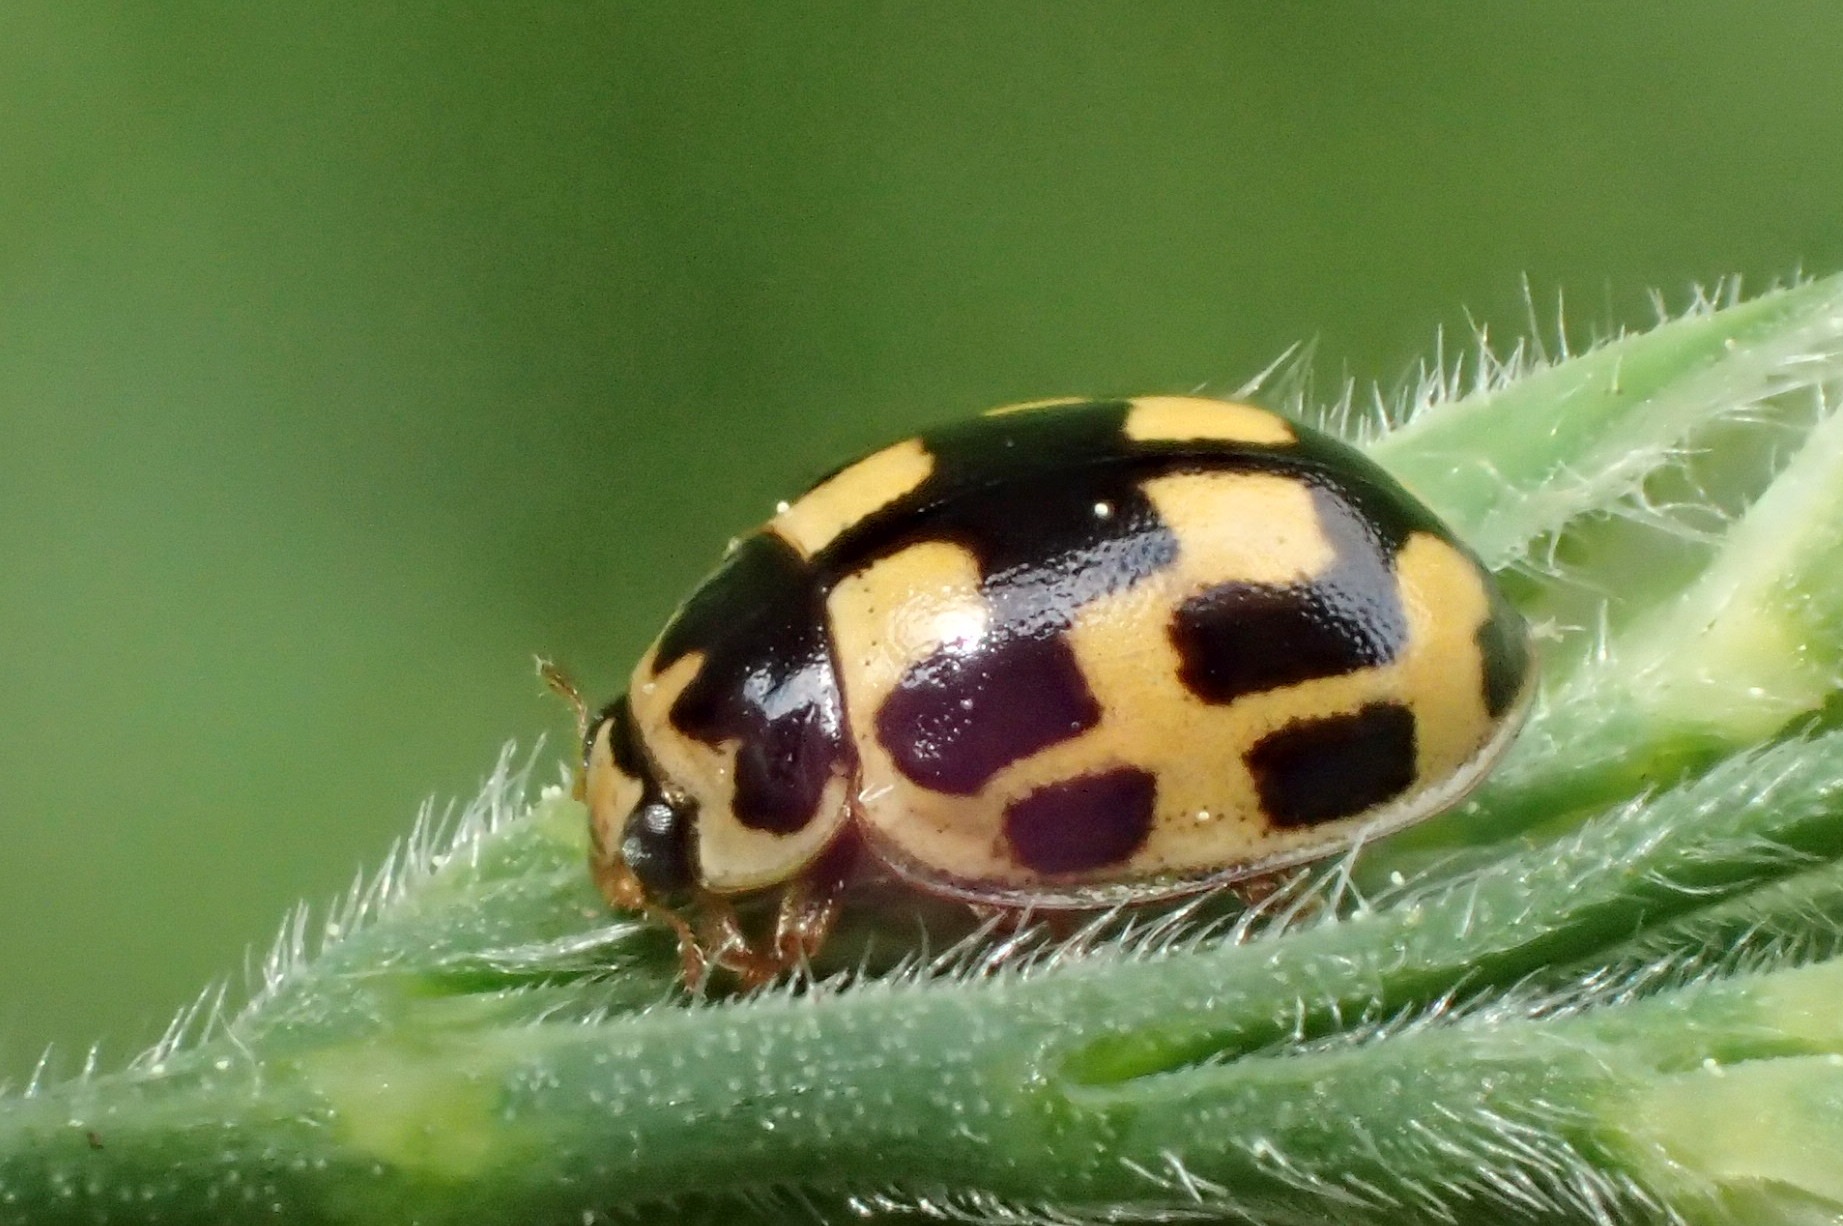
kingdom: Animalia
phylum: Arthropoda
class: Insecta
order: Coleoptera
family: Coccinellidae
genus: Propylaea
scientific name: Propylaea quatuordecimpunctata
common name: Skakbræt
